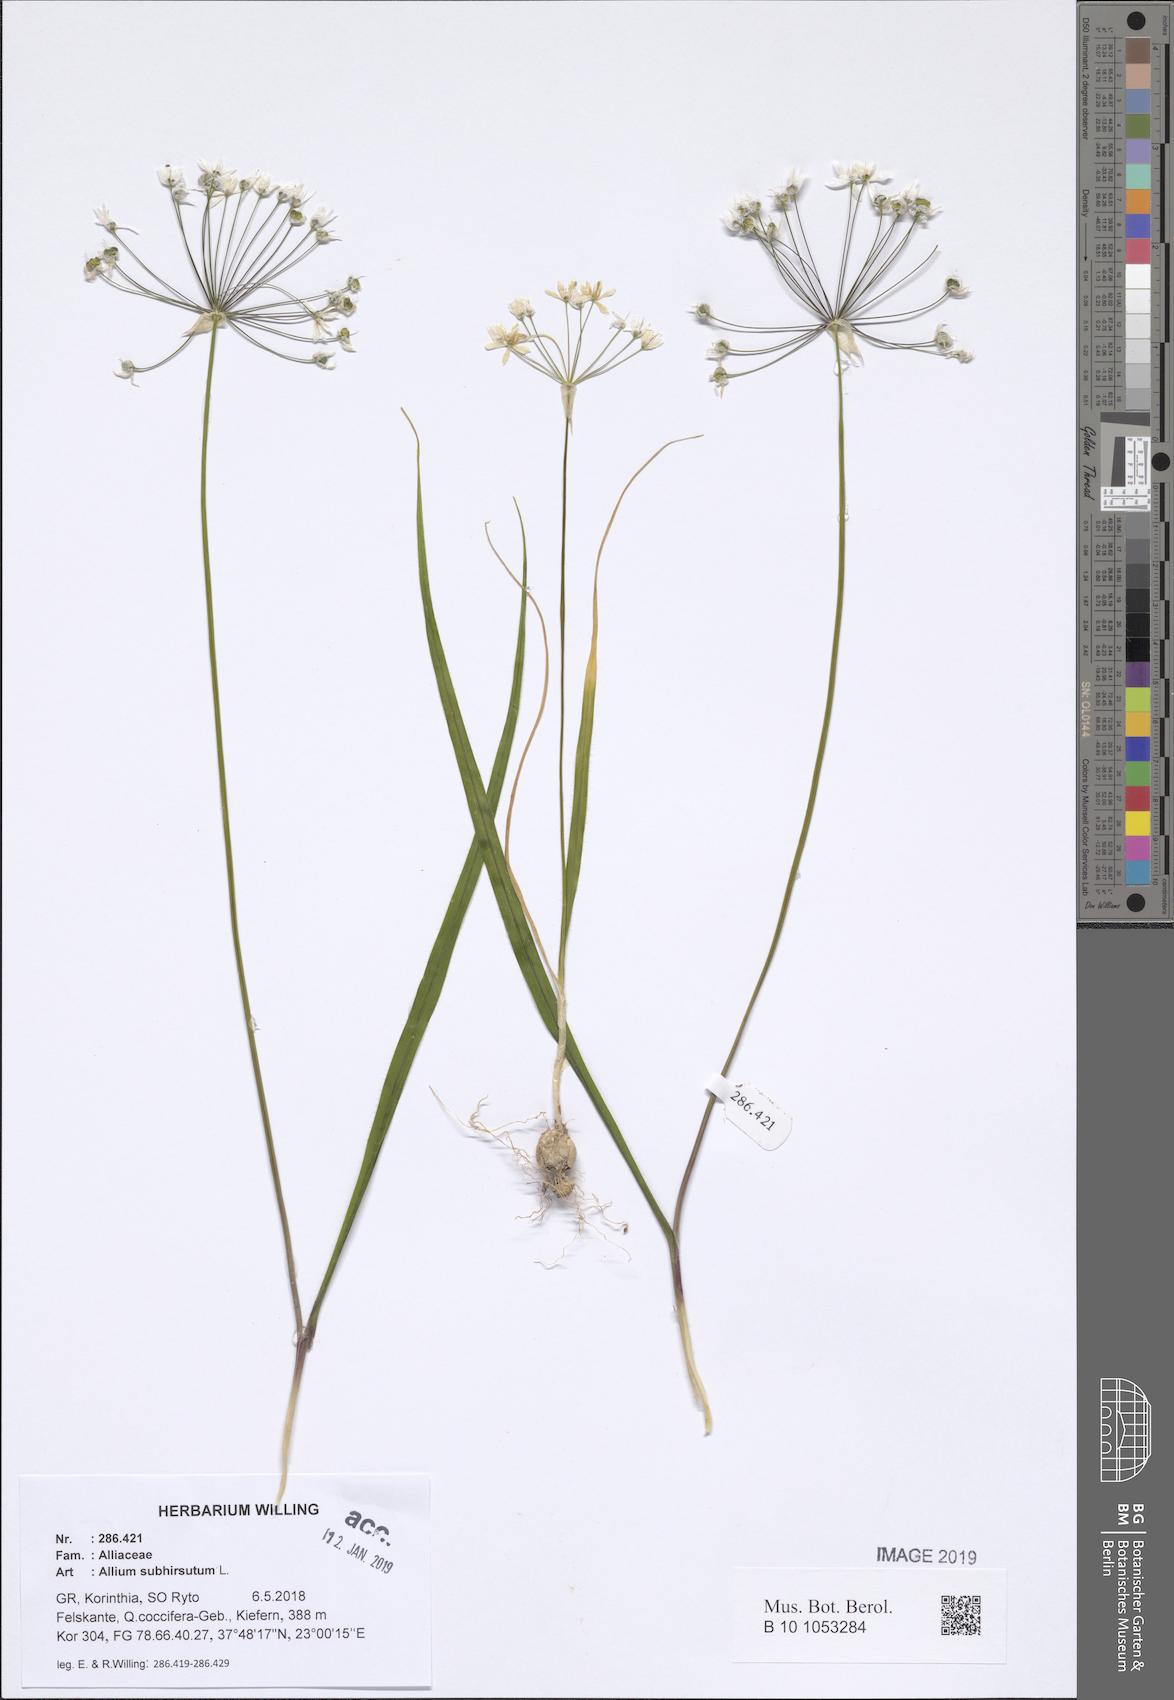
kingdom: Plantae
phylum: Tracheophyta
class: Liliopsida
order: Asparagales
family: Amaryllidaceae
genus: Allium
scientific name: Allium subhirsutum
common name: Hairy garlic
